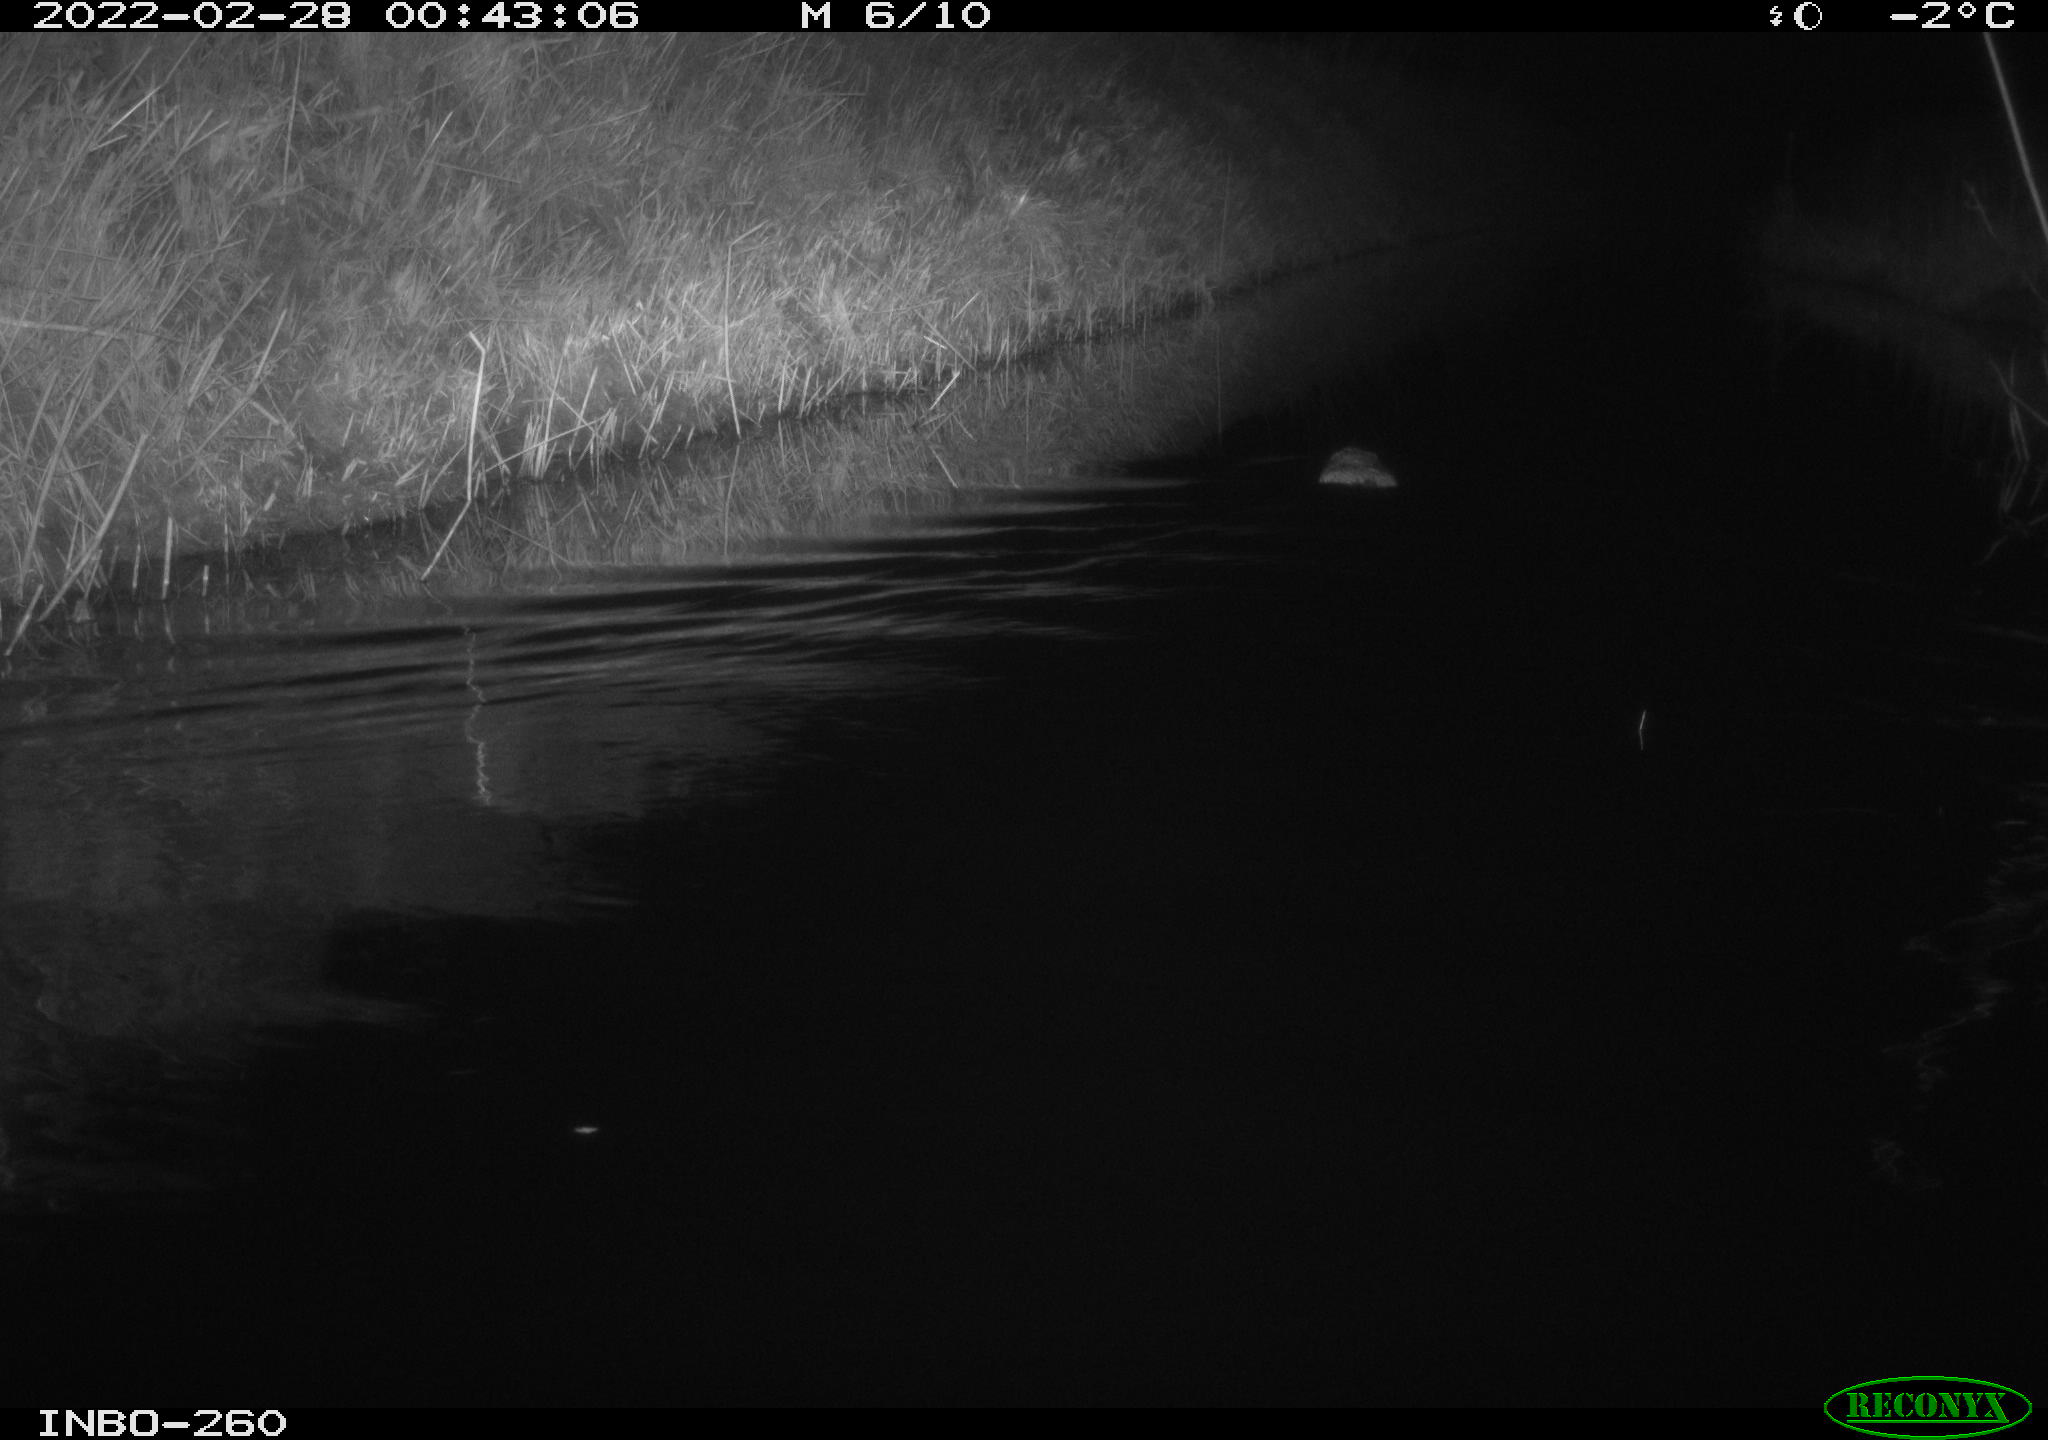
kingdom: Animalia
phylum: Chordata
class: Mammalia
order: Rodentia
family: Cricetidae
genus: Ondatra
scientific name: Ondatra zibethicus
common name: Muskrat
